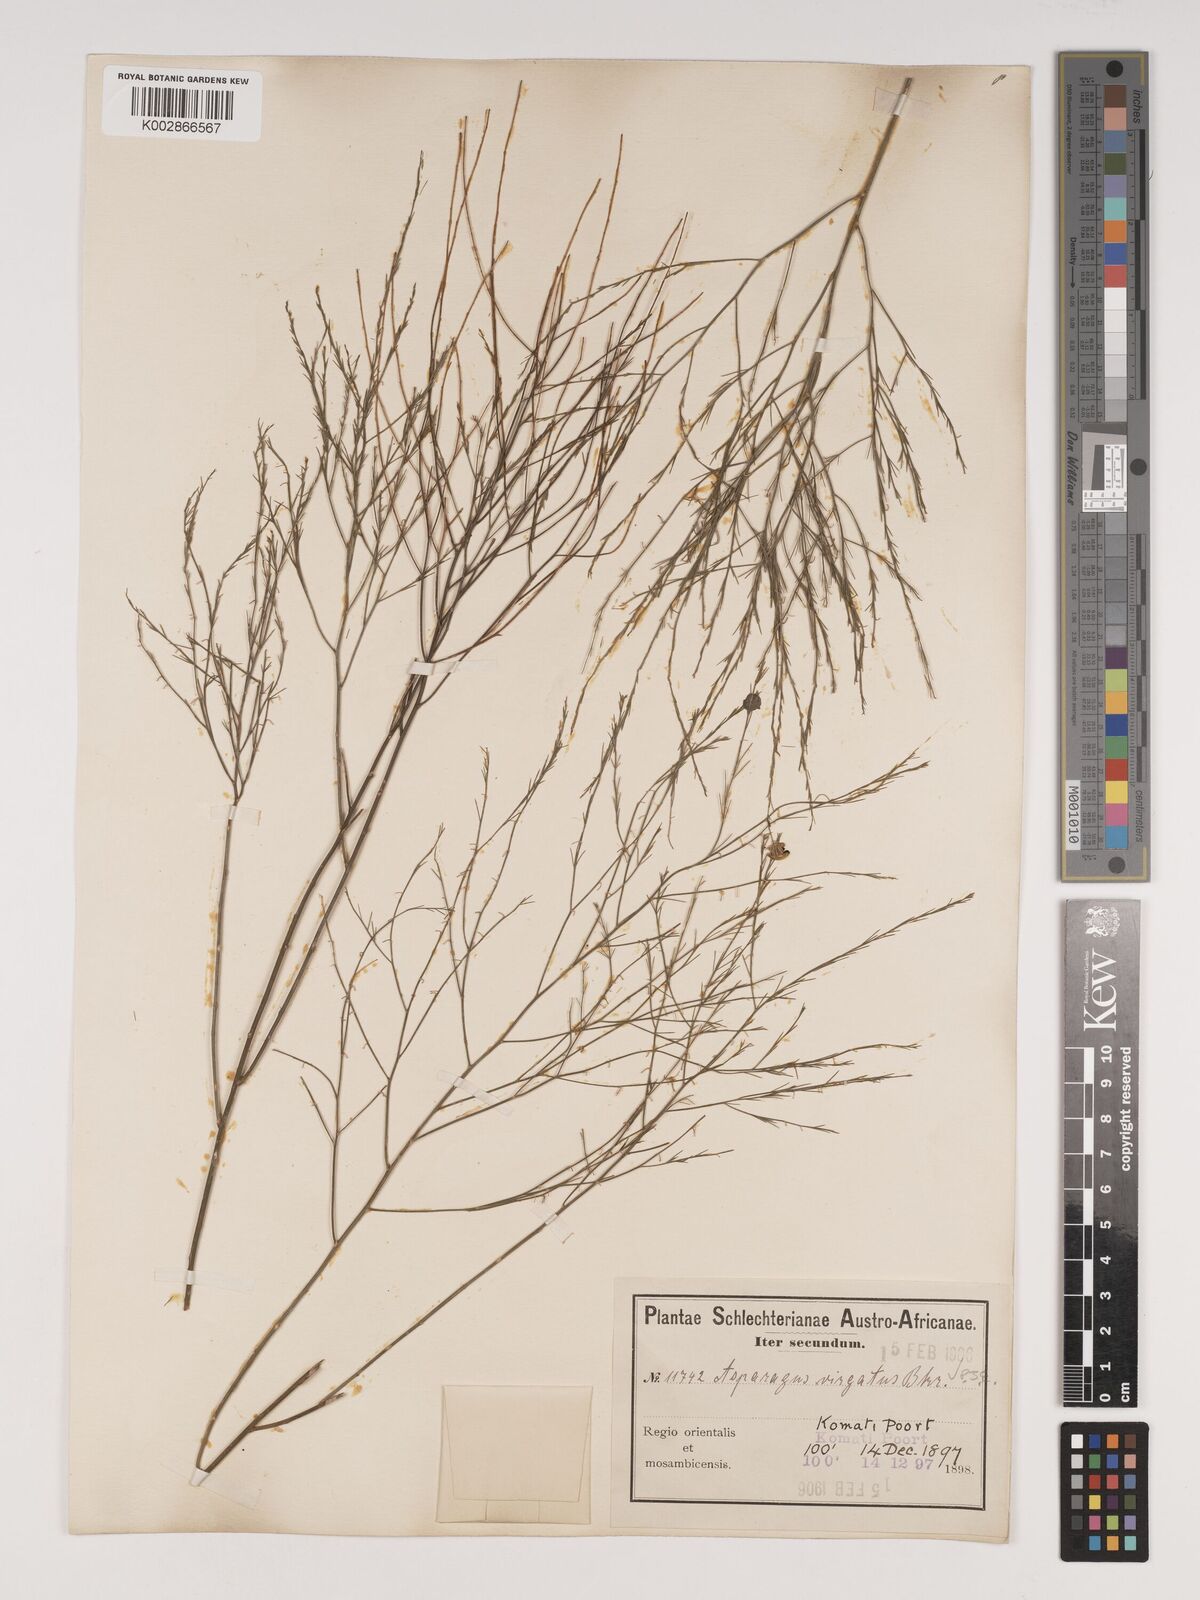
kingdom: Plantae
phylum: Tracheophyta
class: Liliopsida
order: Asparagales
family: Asparagaceae
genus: Asparagus
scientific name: Asparagus virgatus
